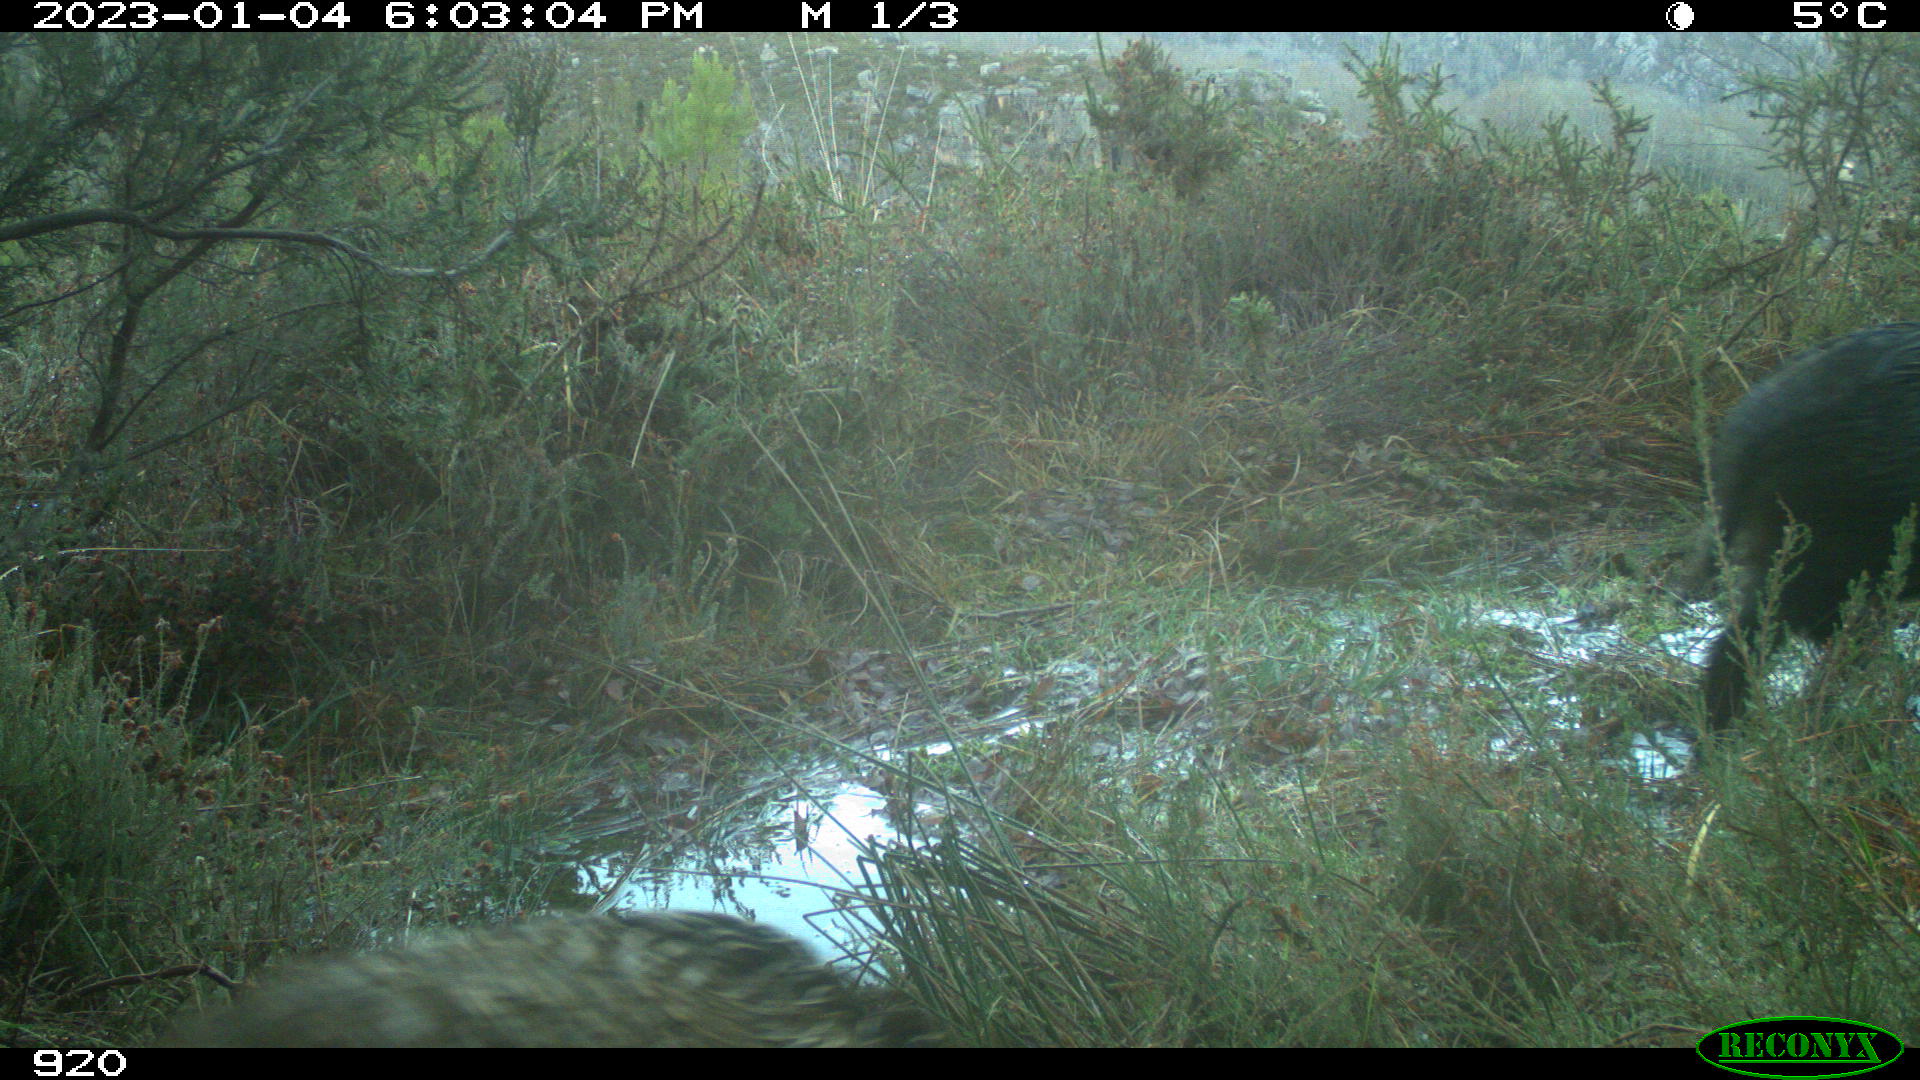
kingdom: Animalia
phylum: Chordata
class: Mammalia
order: Artiodactyla
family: Suidae
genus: Sus
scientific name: Sus scrofa
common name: Wild boar
